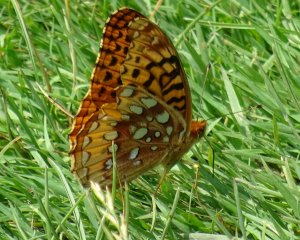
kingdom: Animalia
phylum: Arthropoda
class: Insecta
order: Lepidoptera
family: Nymphalidae
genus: Speyeria
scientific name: Speyeria cybele
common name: Great Spangled Fritillary
